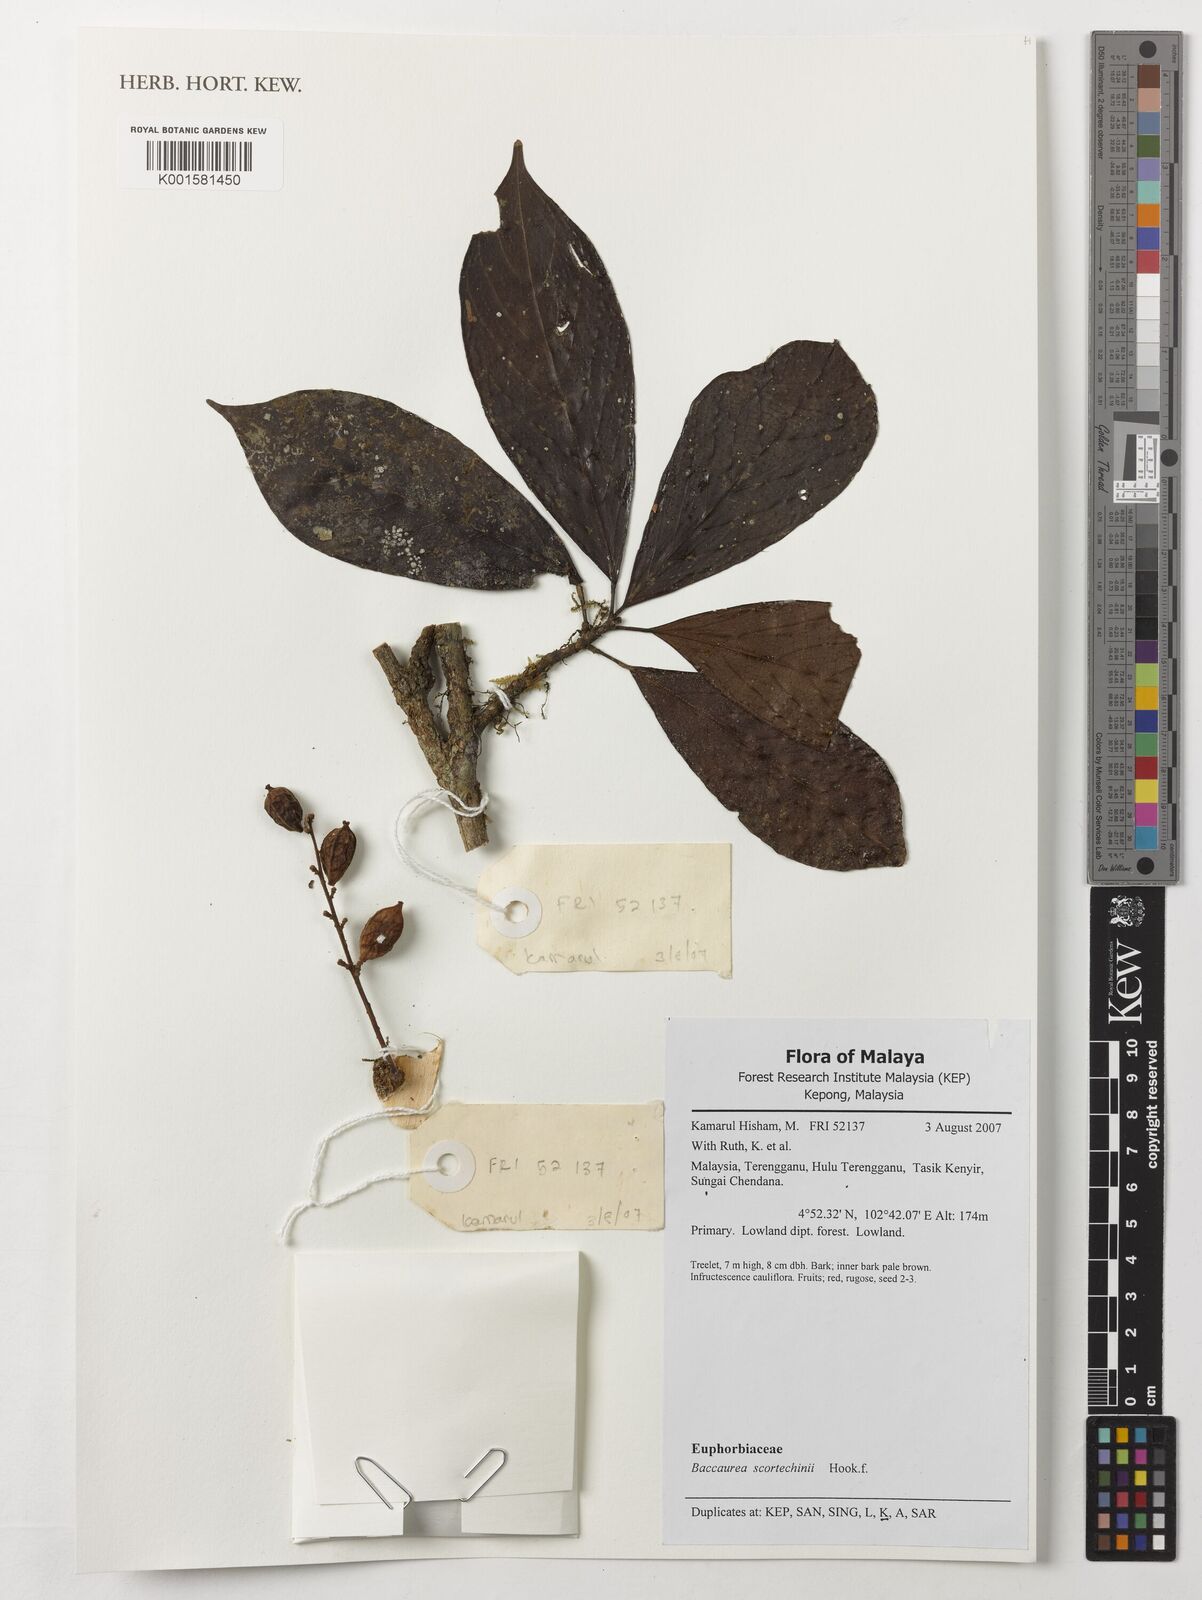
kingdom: Plantae
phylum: Tracheophyta
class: Magnoliopsida
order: Malpighiales
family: Phyllanthaceae
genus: Baccaurea
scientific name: Baccaurea parviflora
